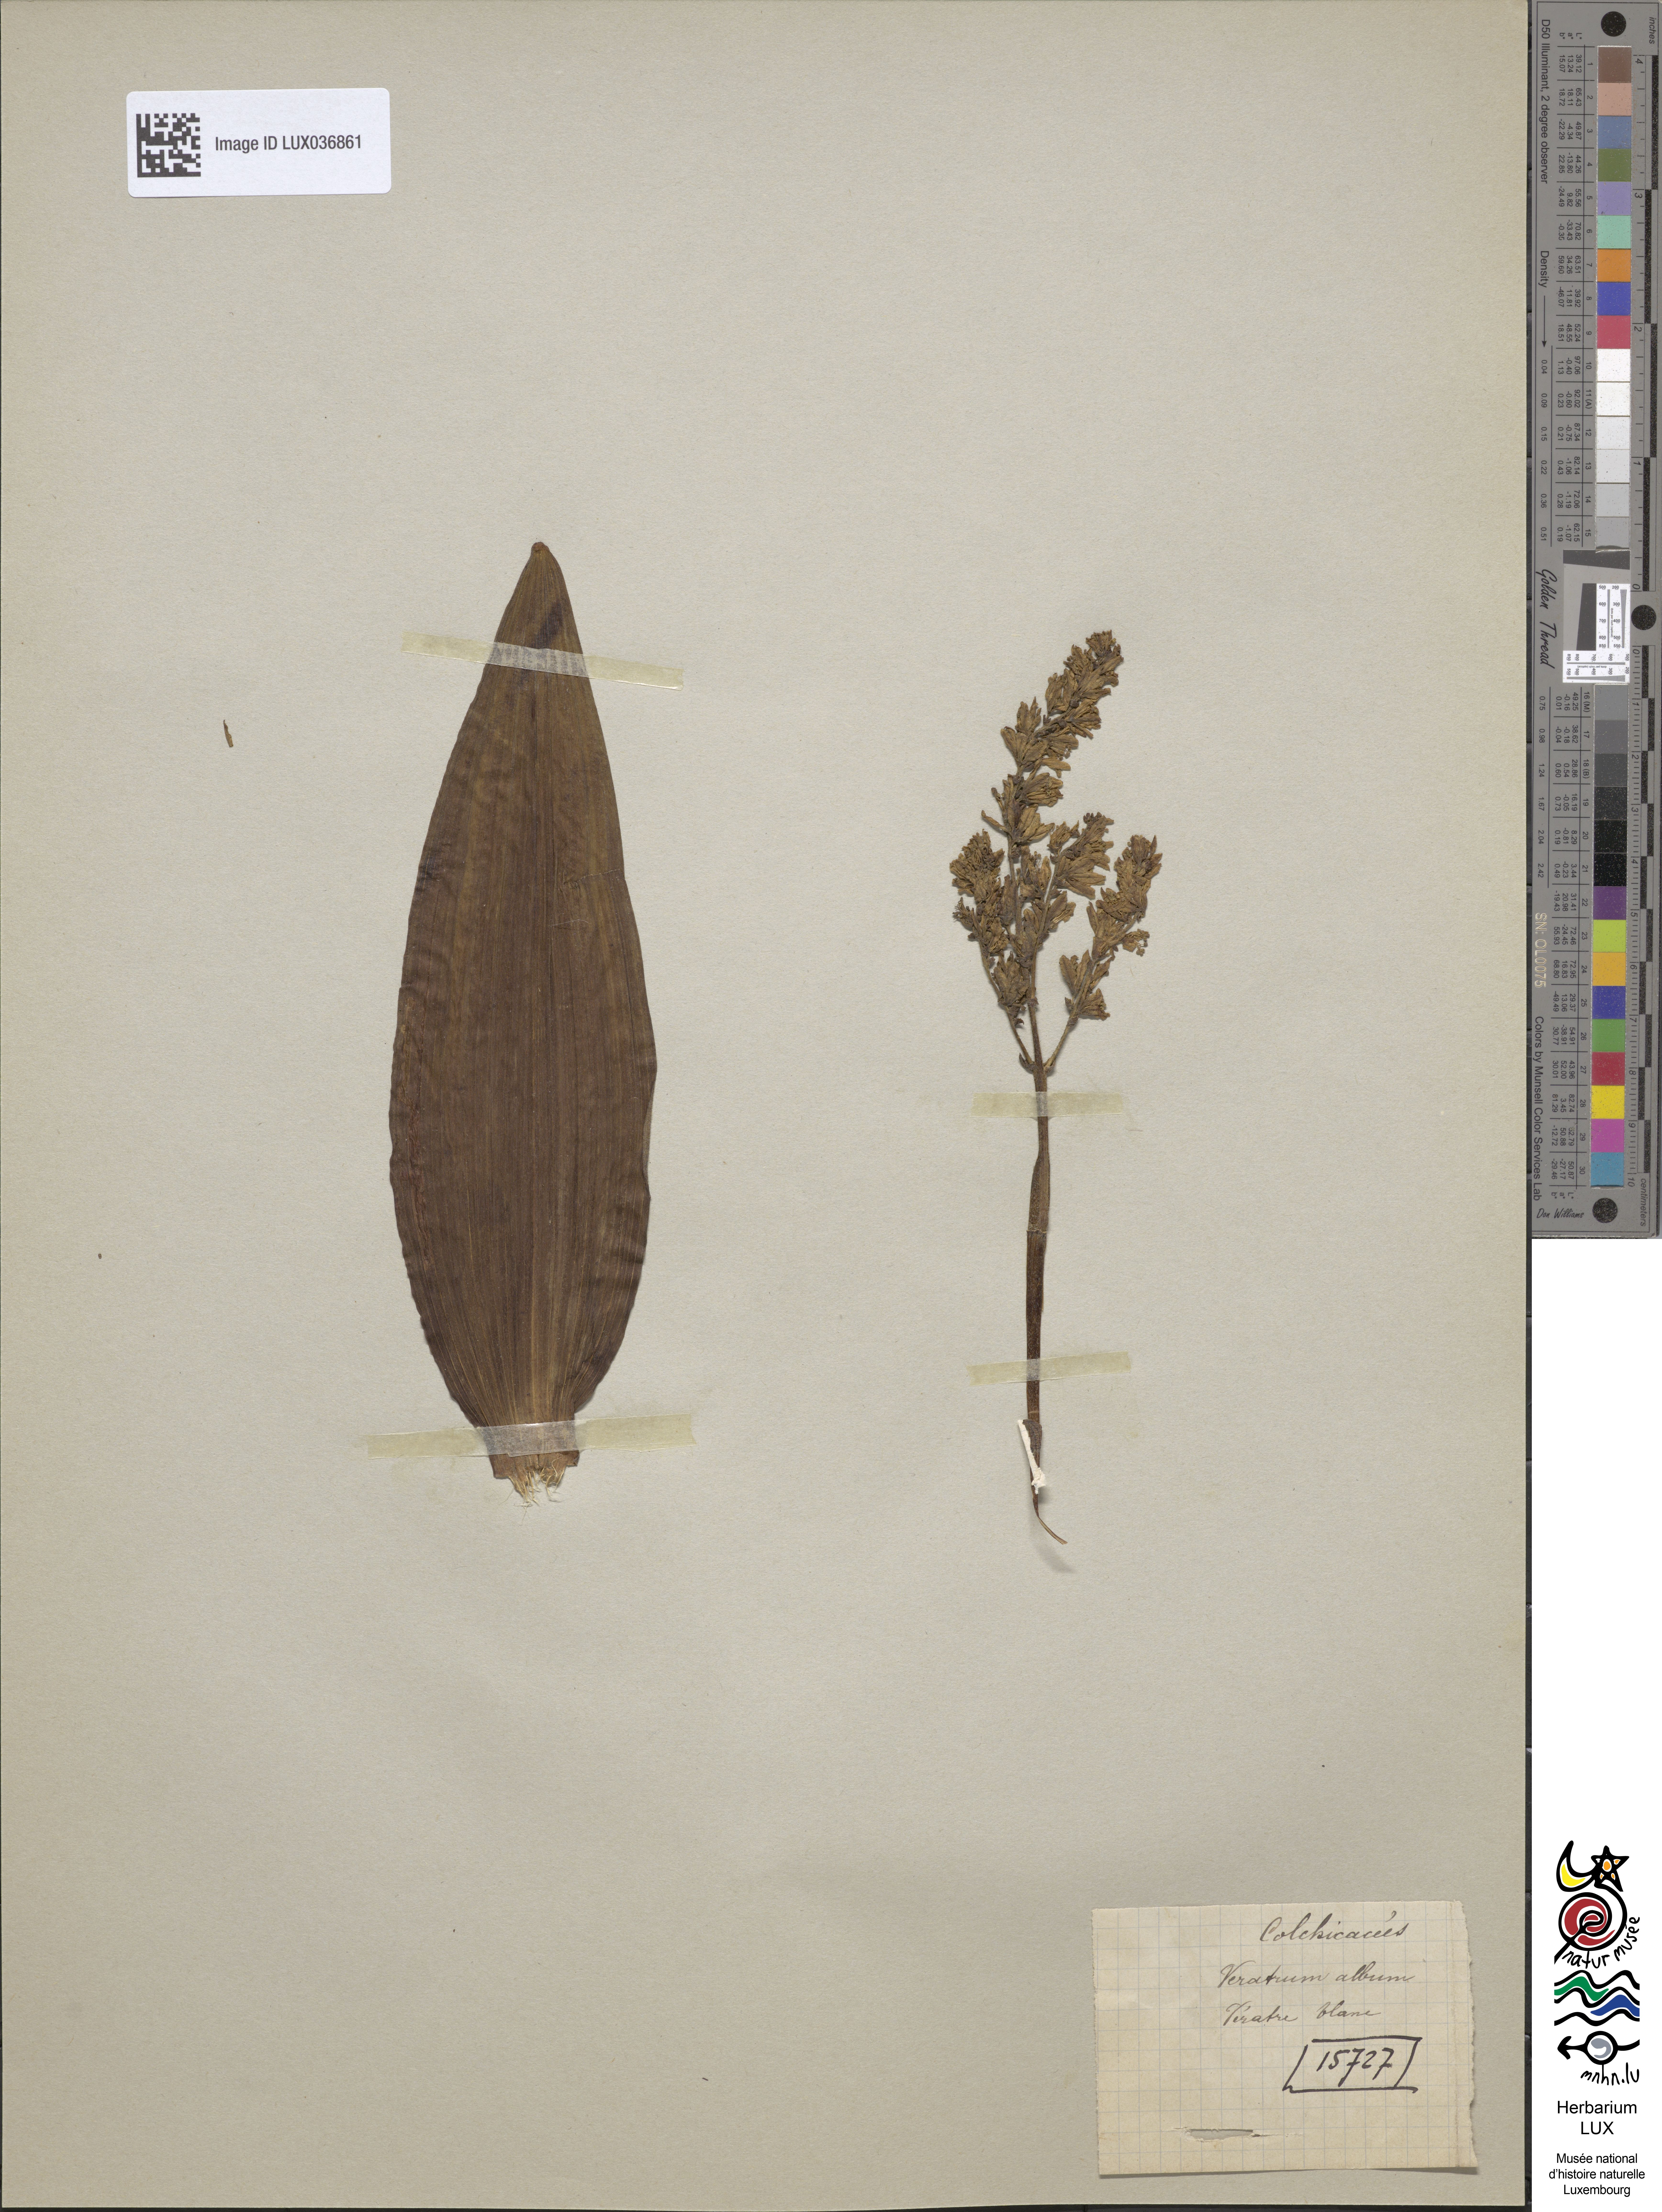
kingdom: Plantae
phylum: Tracheophyta
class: Liliopsida
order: Liliales
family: Melanthiaceae
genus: Veratrum
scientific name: Veratrum album
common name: White veratrum
